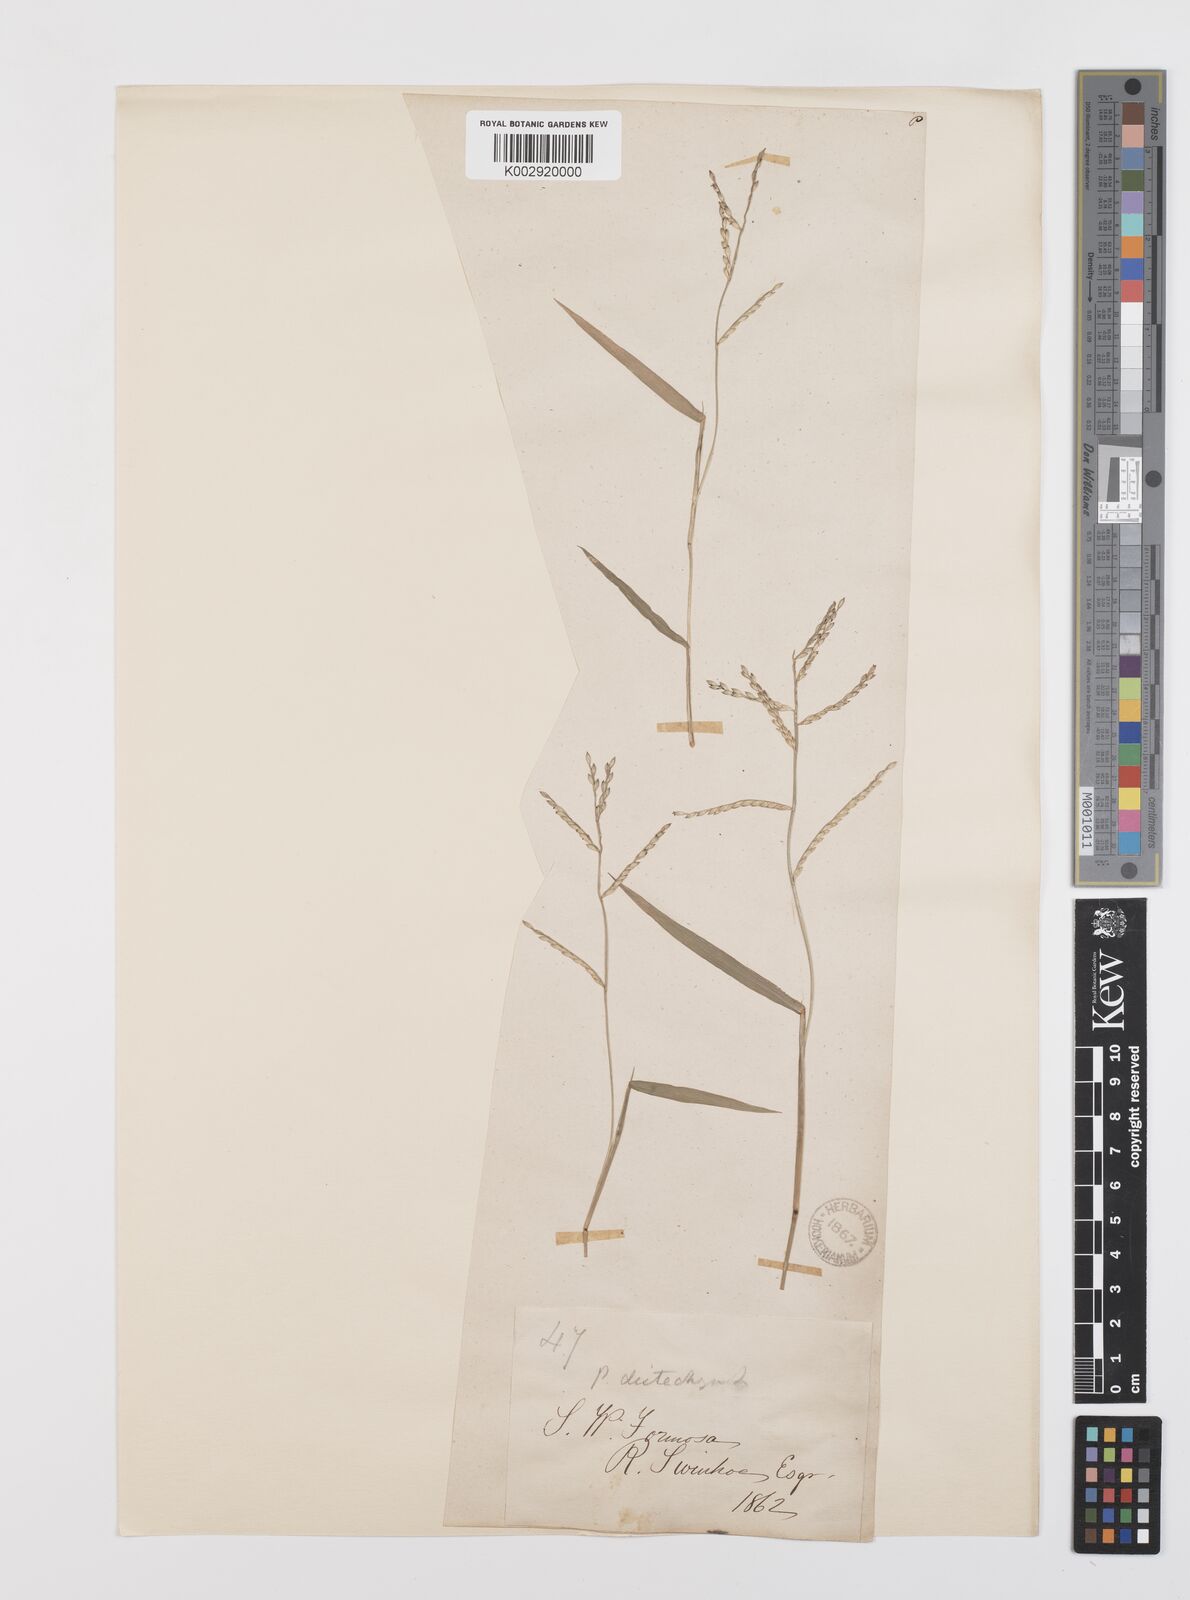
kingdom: Plantae
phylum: Tracheophyta
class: Liliopsida
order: Poales
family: Poaceae
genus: Urochloa
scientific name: Urochloa subquadripara
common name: Armgrass millet
